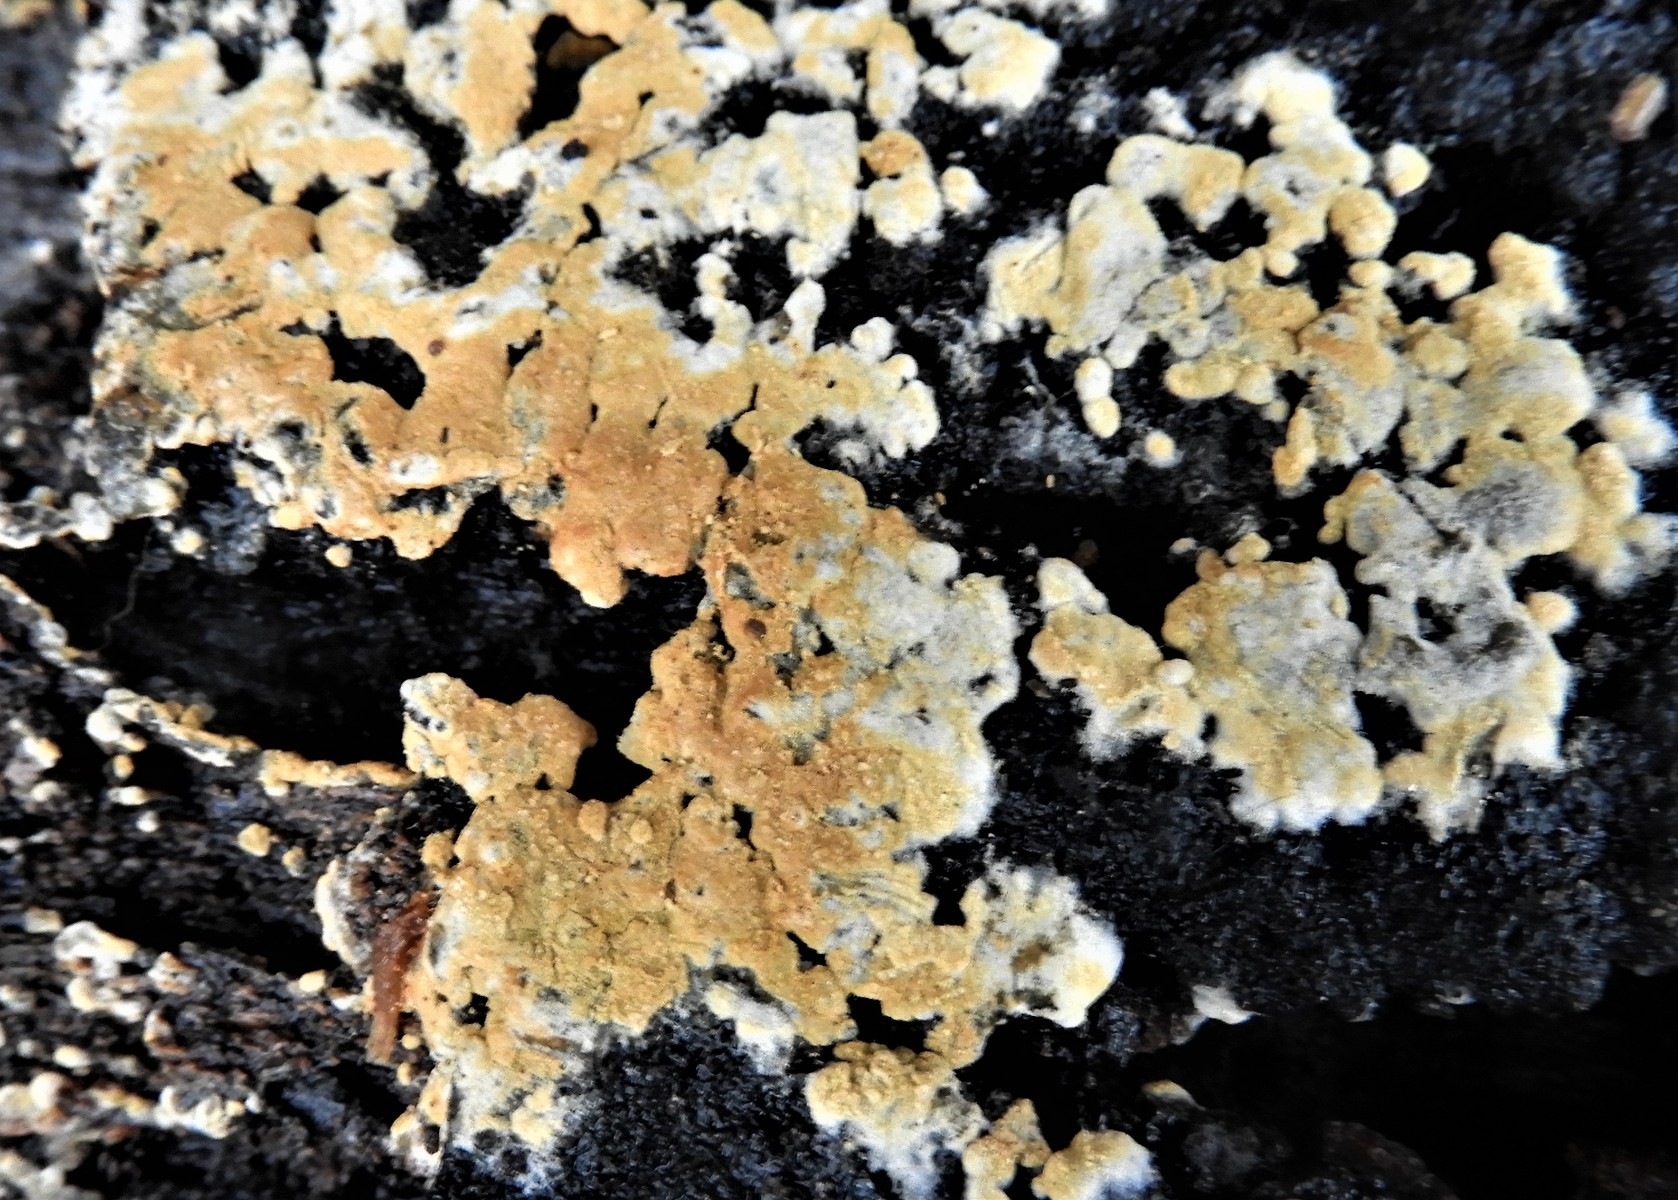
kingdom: Fungi
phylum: Basidiomycota
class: Agaricomycetes
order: Cantharellales
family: Botryobasidiaceae
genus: Botryobasidium
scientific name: Botryobasidium aureum
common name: gylden spindhinde
